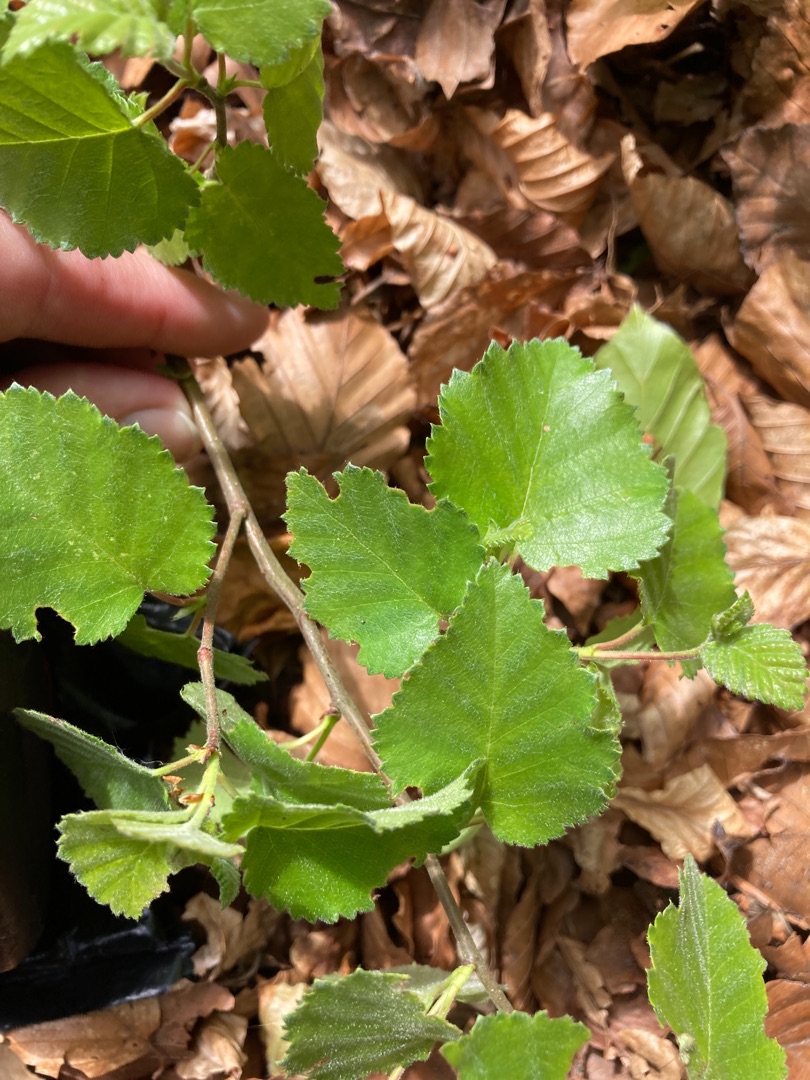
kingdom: Plantae
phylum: Tracheophyta
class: Magnoliopsida
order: Fagales
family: Betulaceae
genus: Betula
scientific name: Betula pendula
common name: Vorte-birk
